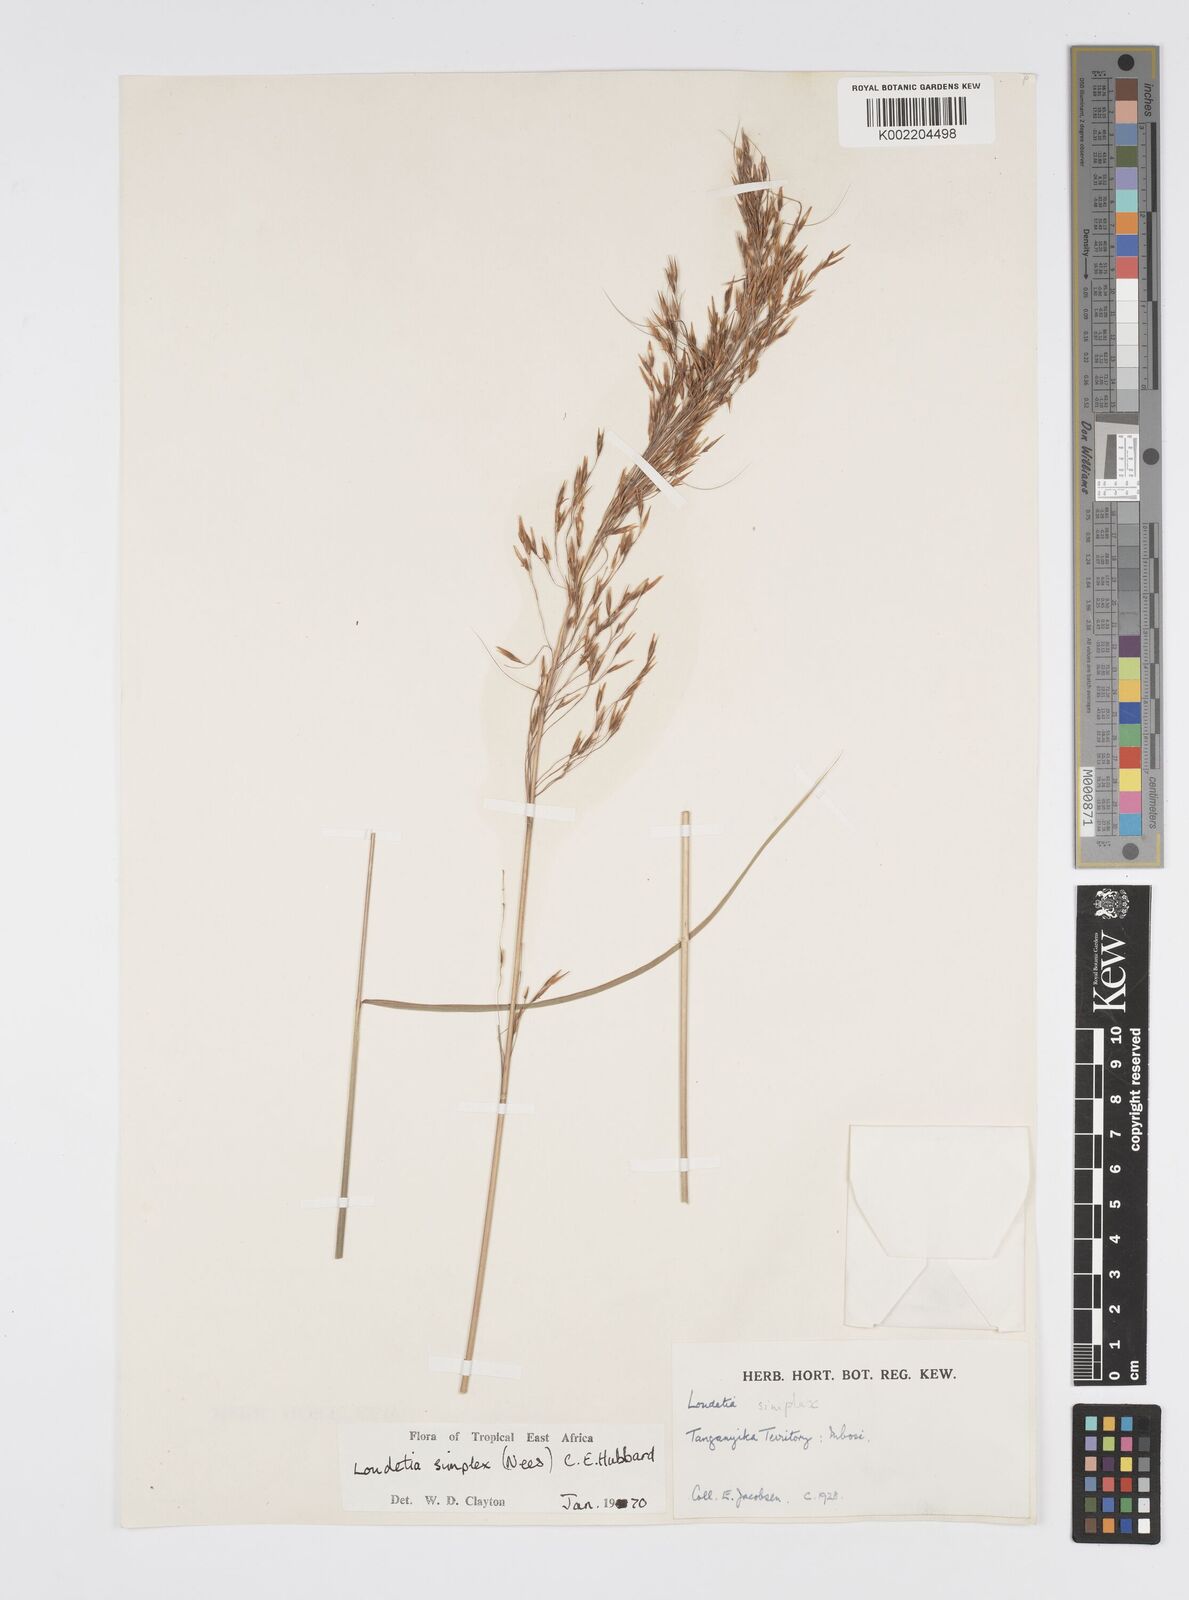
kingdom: Plantae
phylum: Tracheophyta
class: Liliopsida
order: Poales
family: Poaceae
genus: Loudetia
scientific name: Loudetia simplex
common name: Common russet grass
